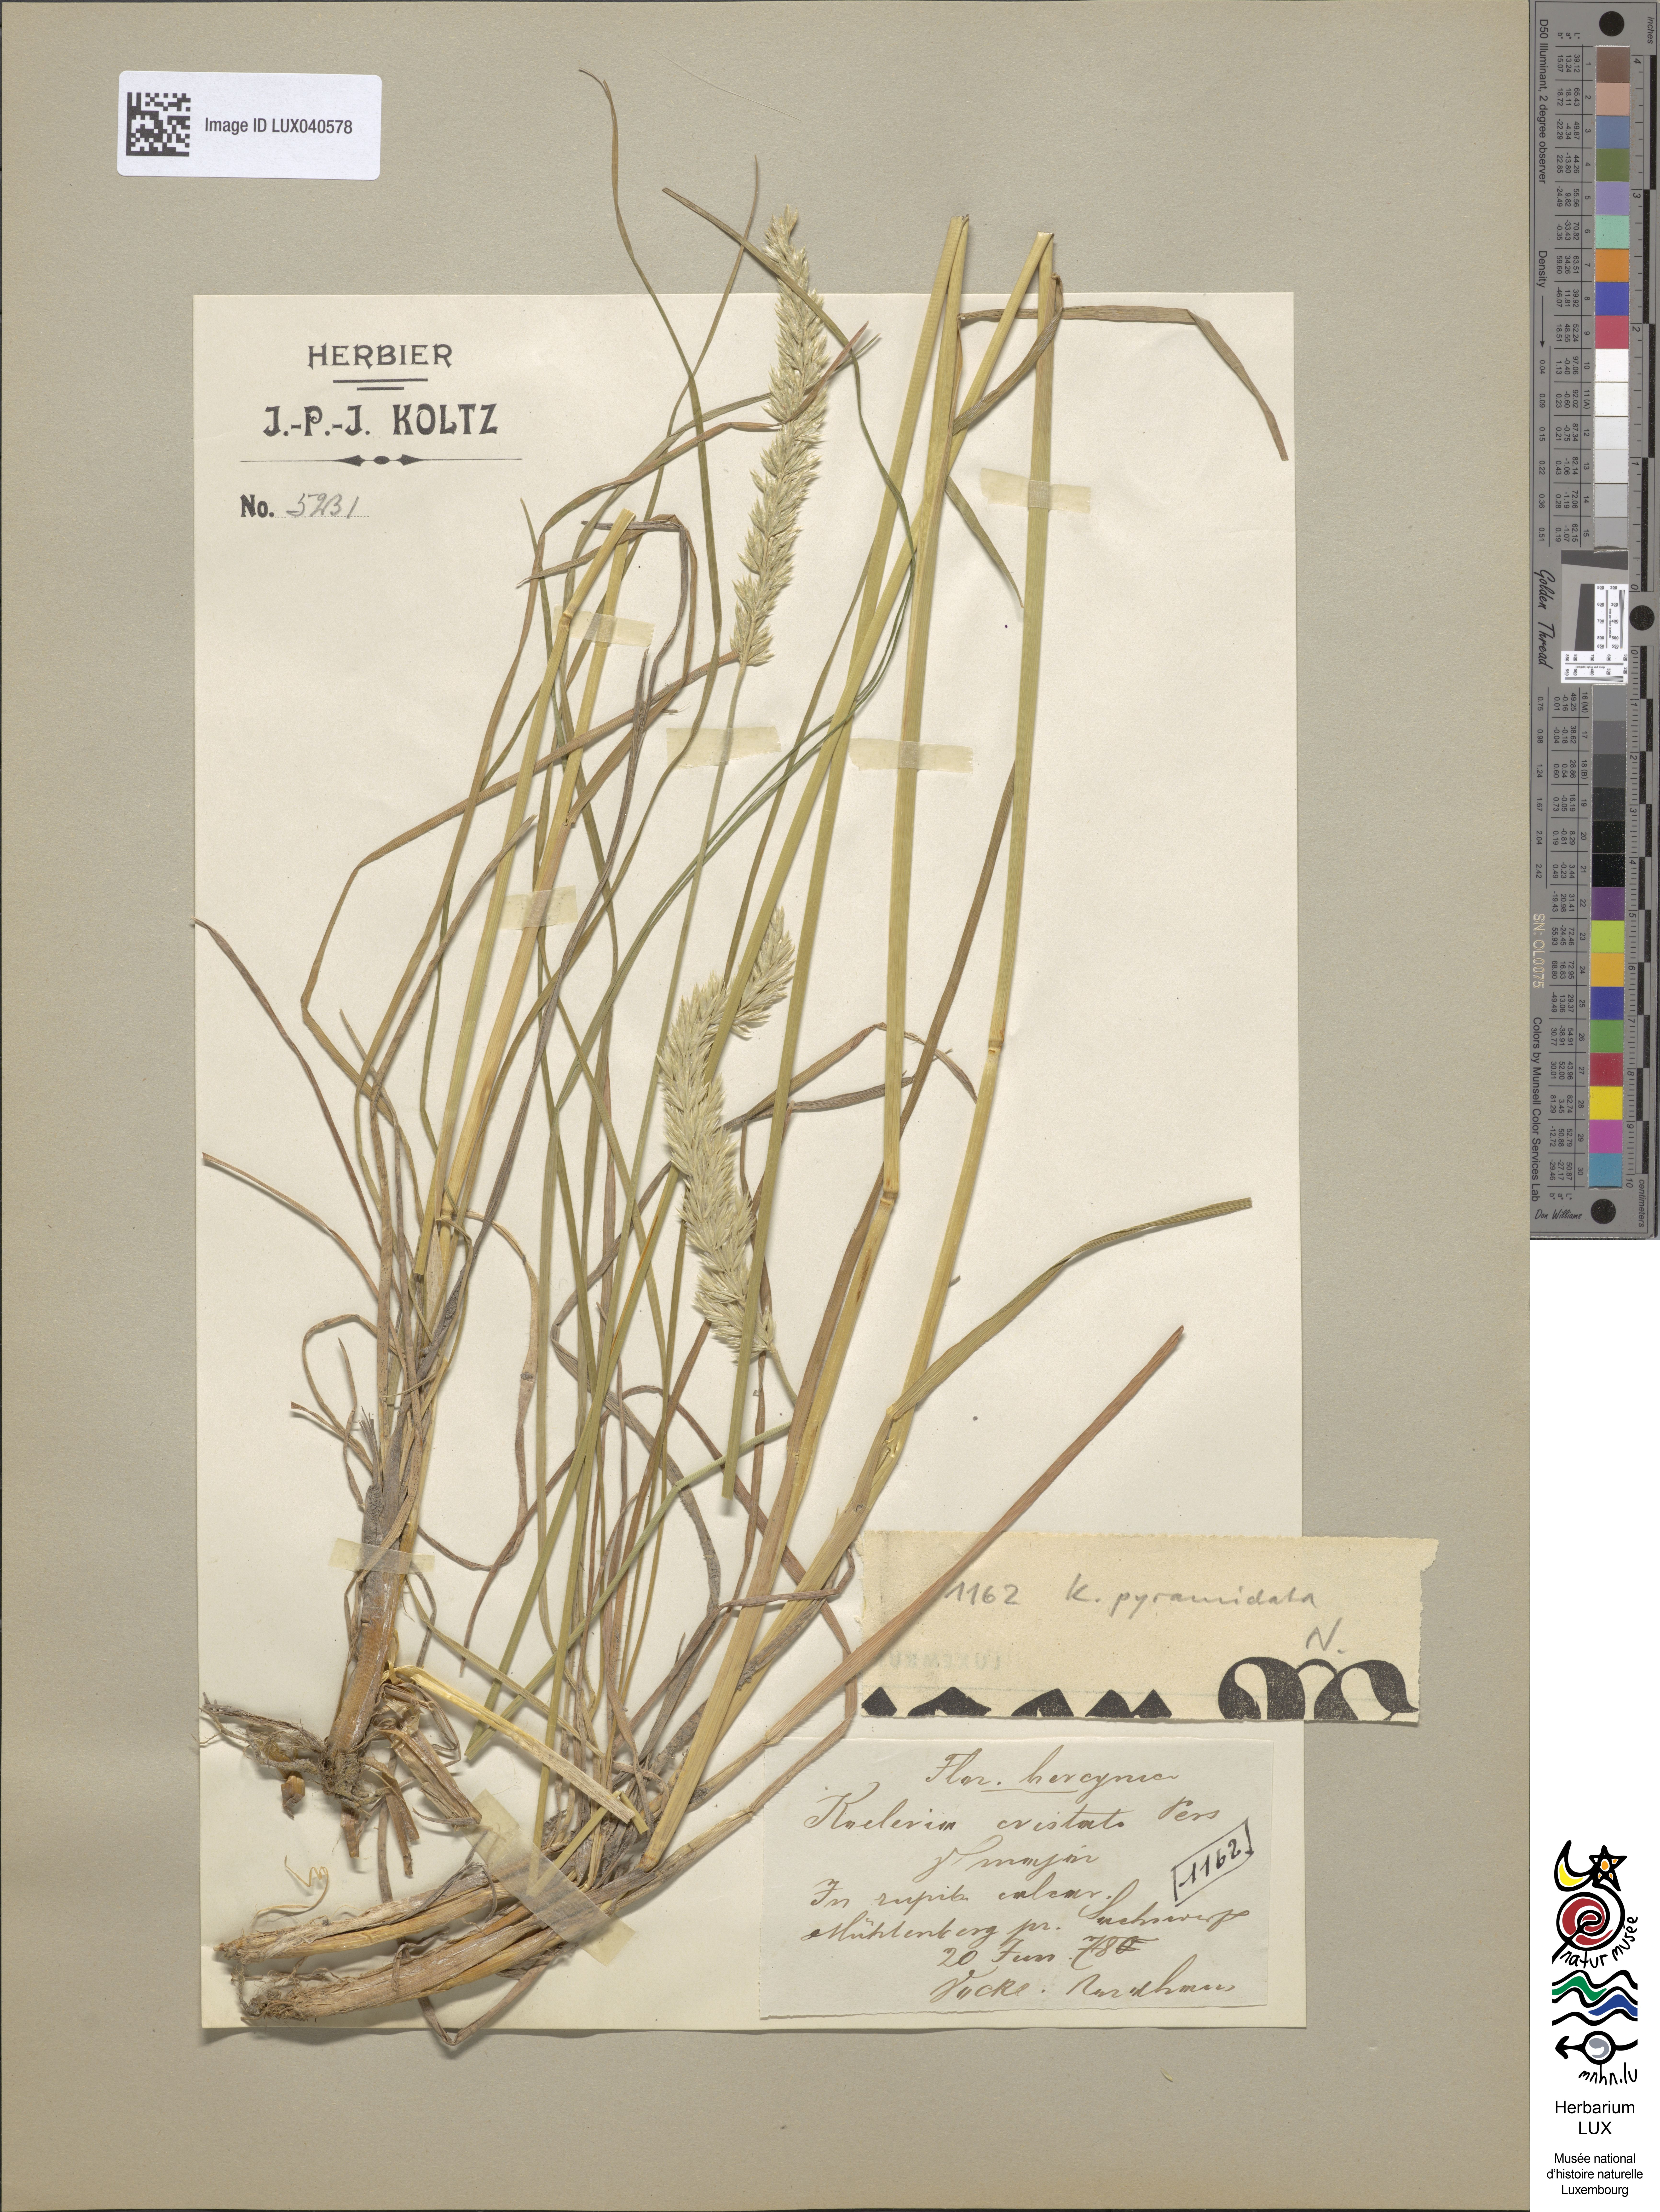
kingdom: Plantae
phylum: Tracheophyta
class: Liliopsida
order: Poales
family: Poaceae
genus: Koeleria
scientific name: Koeleria
